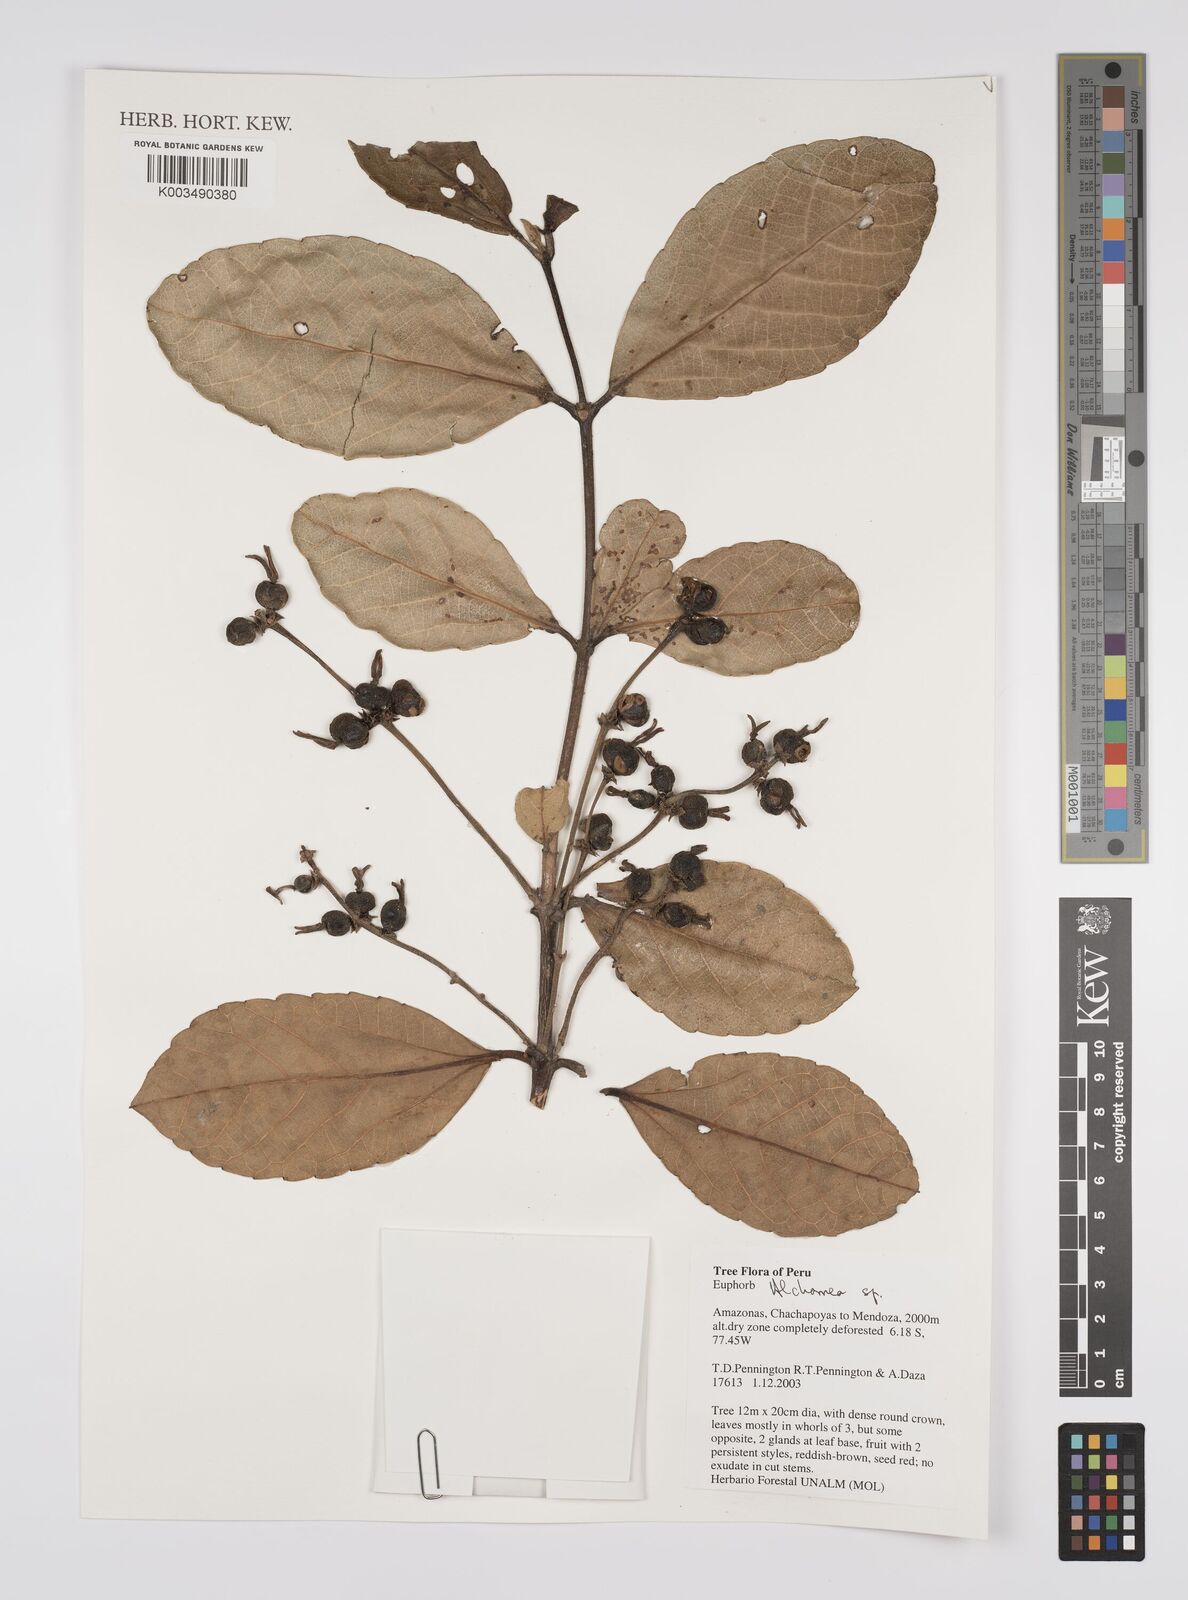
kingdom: Plantae
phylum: Tracheophyta
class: Magnoliopsida
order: Malpighiales
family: Euphorbiaceae
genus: Alchornea
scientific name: Alchornea
